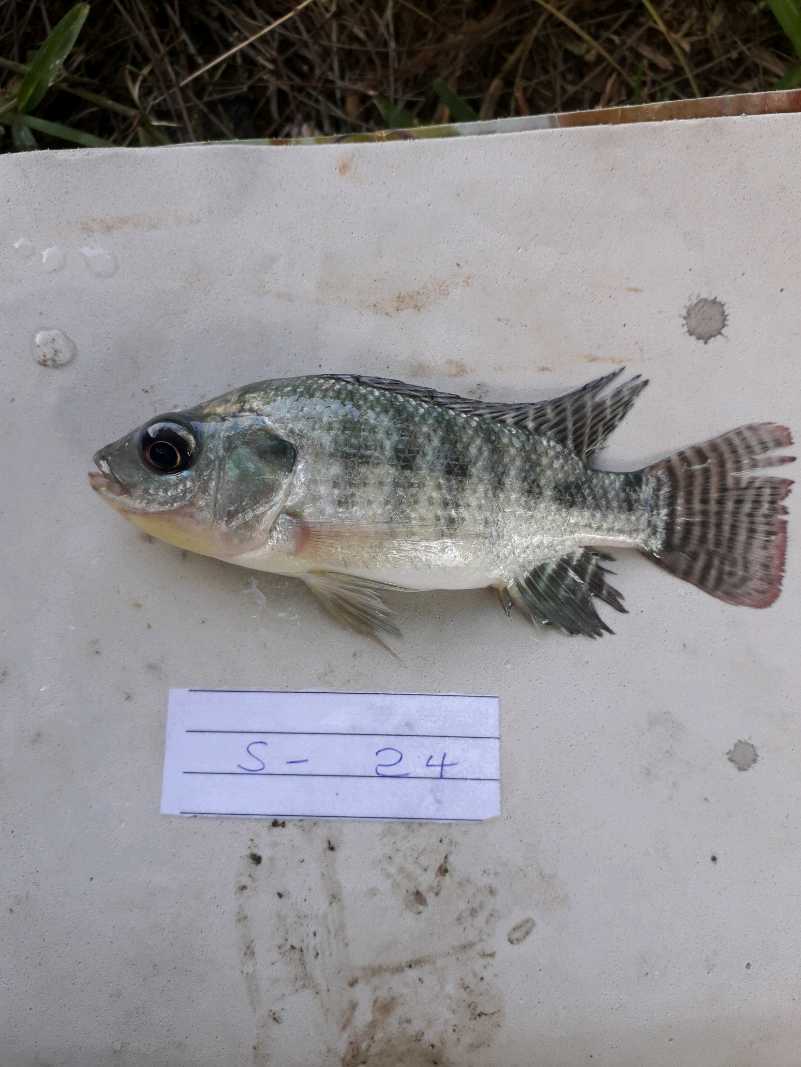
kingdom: Animalia
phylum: Chordata
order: Perciformes
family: Cichlidae
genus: Oreochromis
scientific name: Oreochromis niloticus
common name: Nile tilapia
